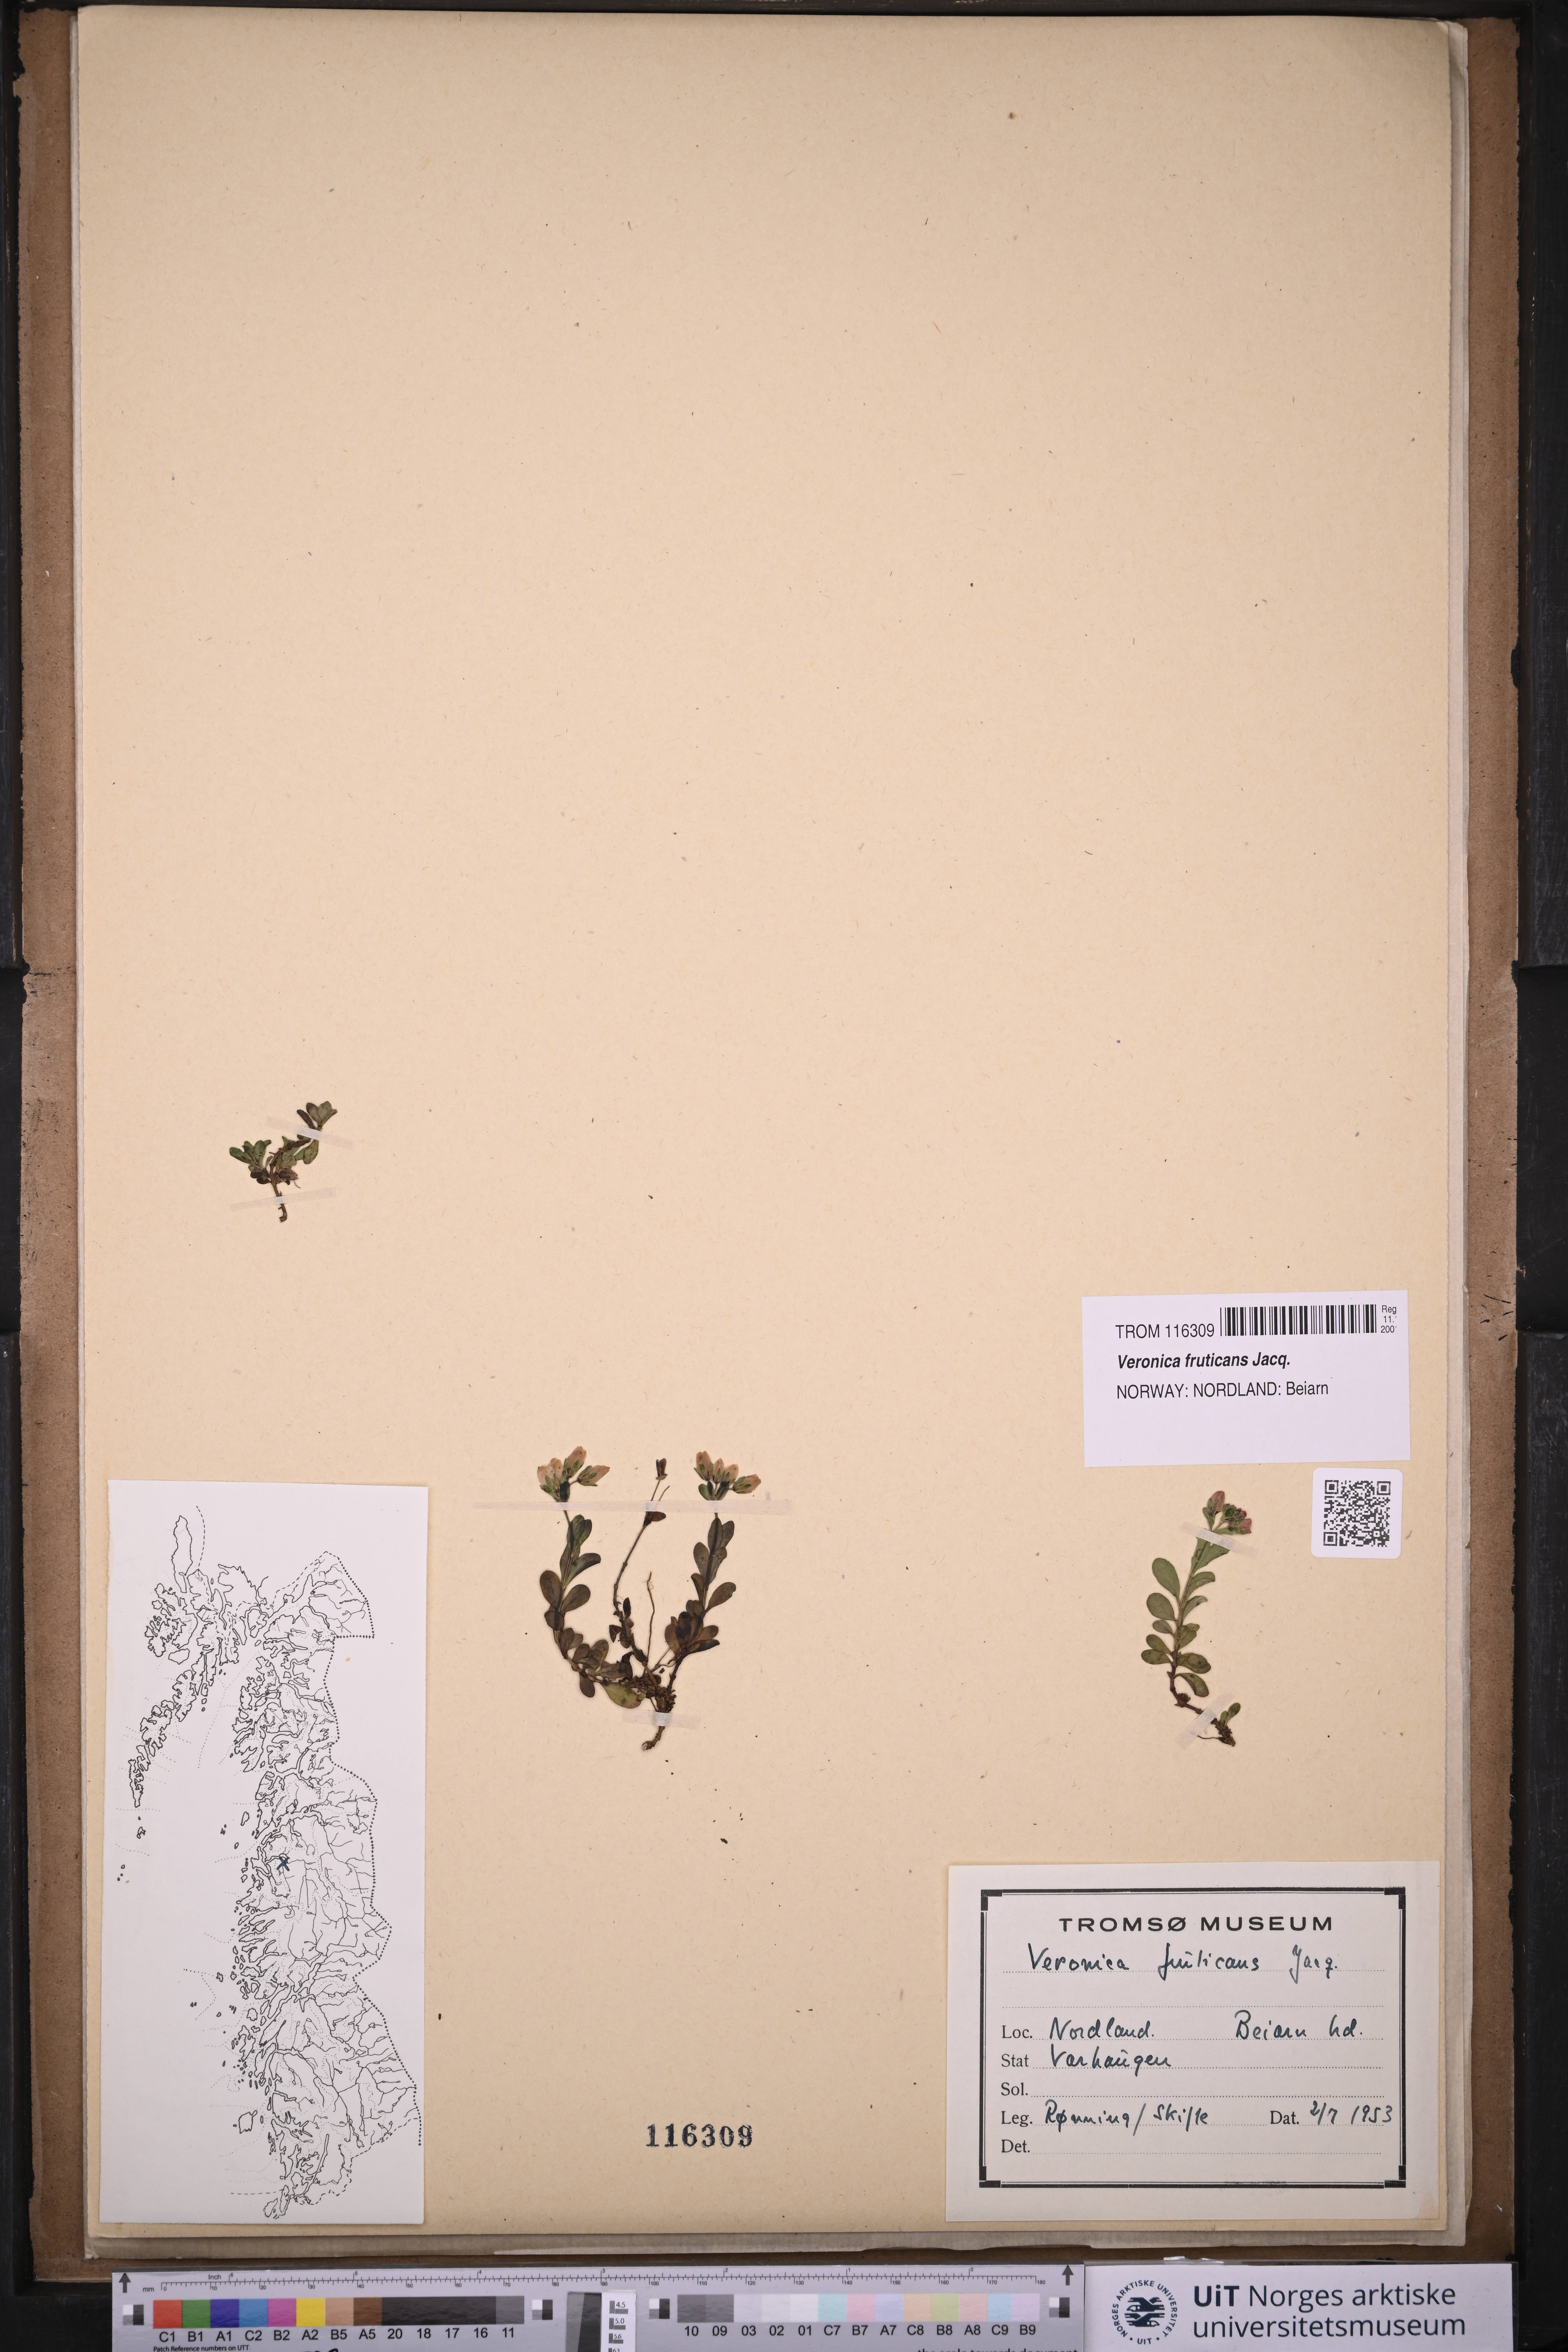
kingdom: Plantae
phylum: Tracheophyta
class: Magnoliopsida
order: Lamiales
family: Plantaginaceae
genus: Veronica
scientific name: Veronica fruticans
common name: Rock speedwell
